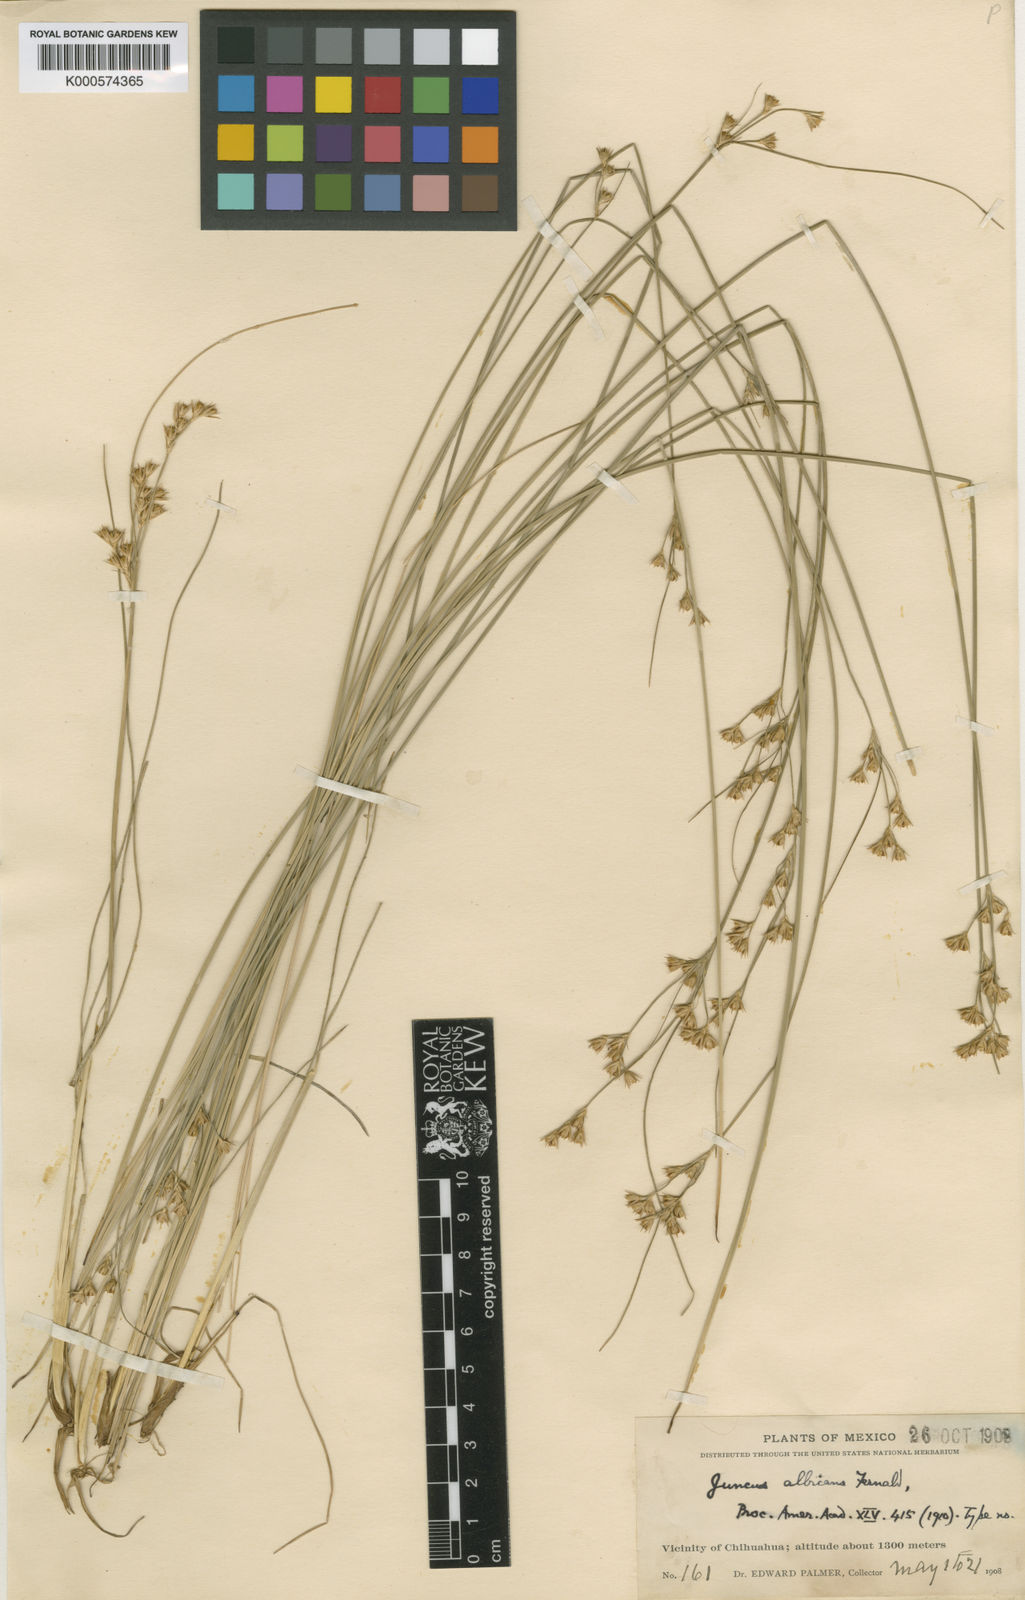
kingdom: Plantae
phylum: Tracheophyta
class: Liliopsida
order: Poales
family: Juncaceae
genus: Juncus
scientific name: Juncus dichotomus
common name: Forked rush
